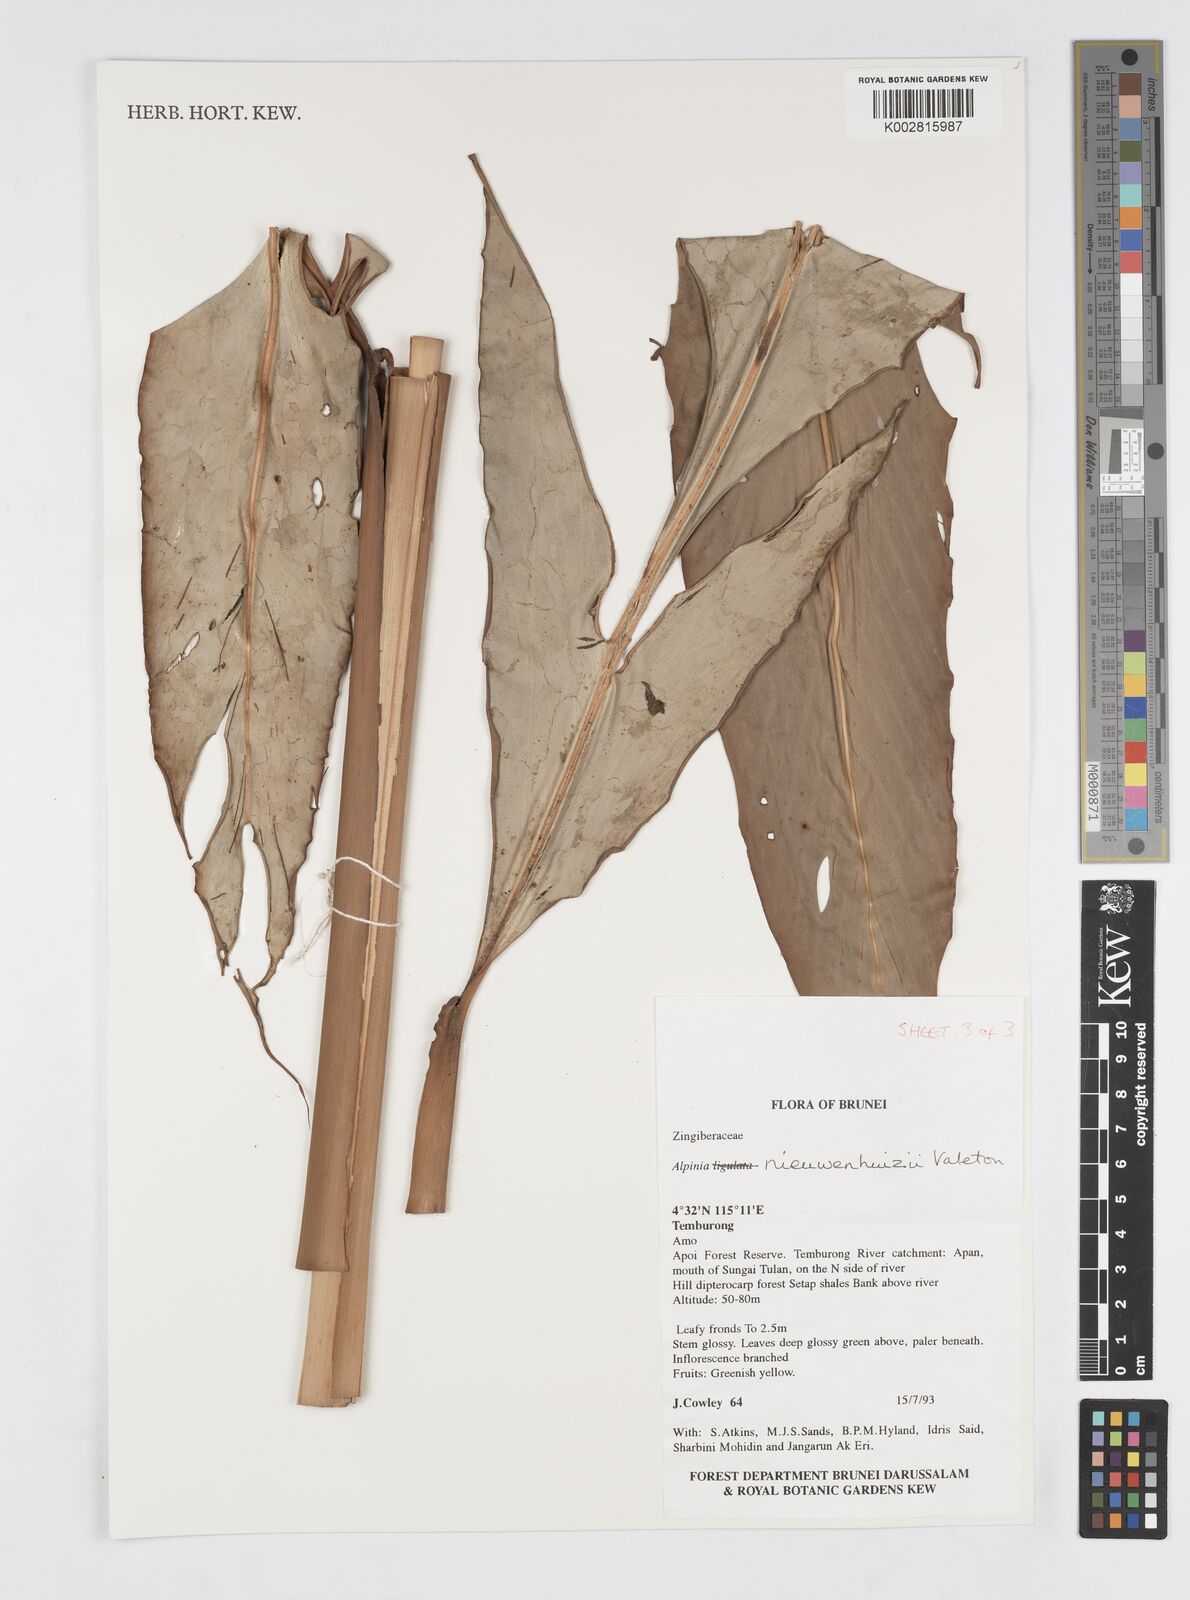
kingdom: Plantae
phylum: Tracheophyta
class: Liliopsida
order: Zingiberales
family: Zingiberaceae
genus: Alpinia
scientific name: Alpinia nieuwenhuizii
